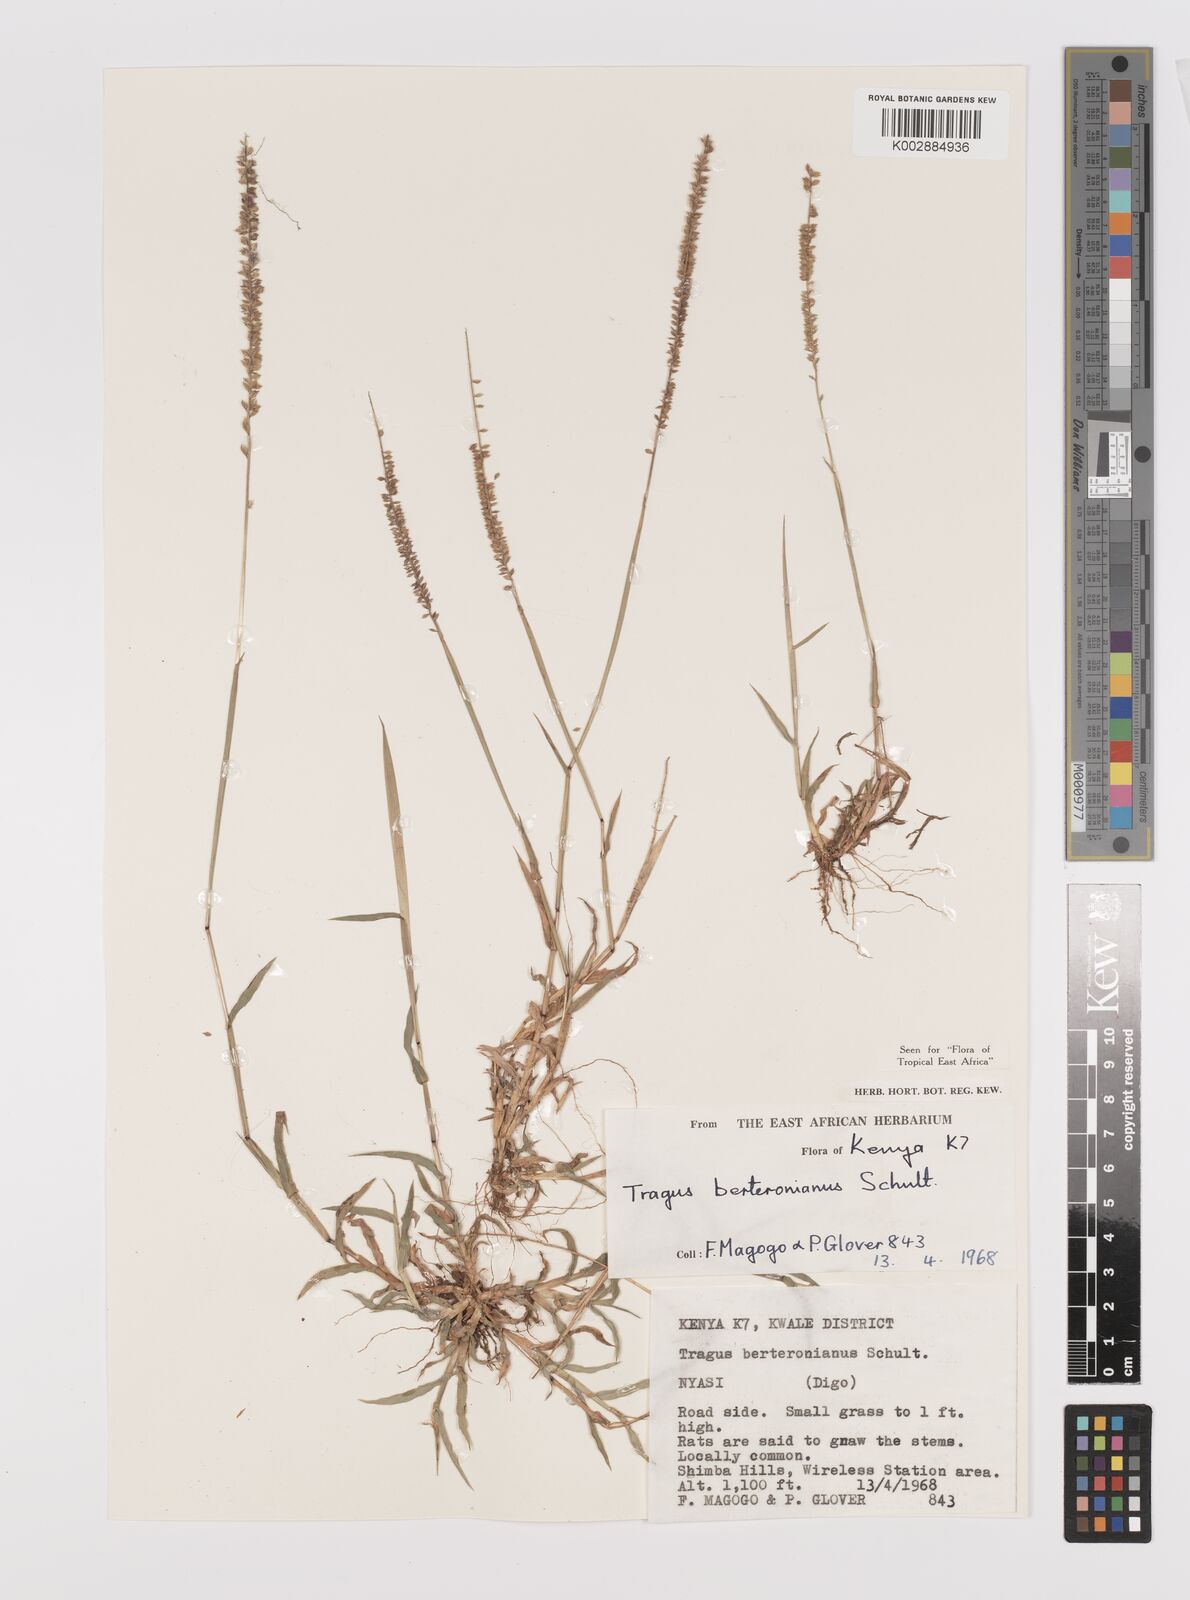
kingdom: Plantae
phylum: Tracheophyta
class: Liliopsida
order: Poales
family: Poaceae
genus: Tragus
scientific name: Tragus berteronianus
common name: African bur-grass
